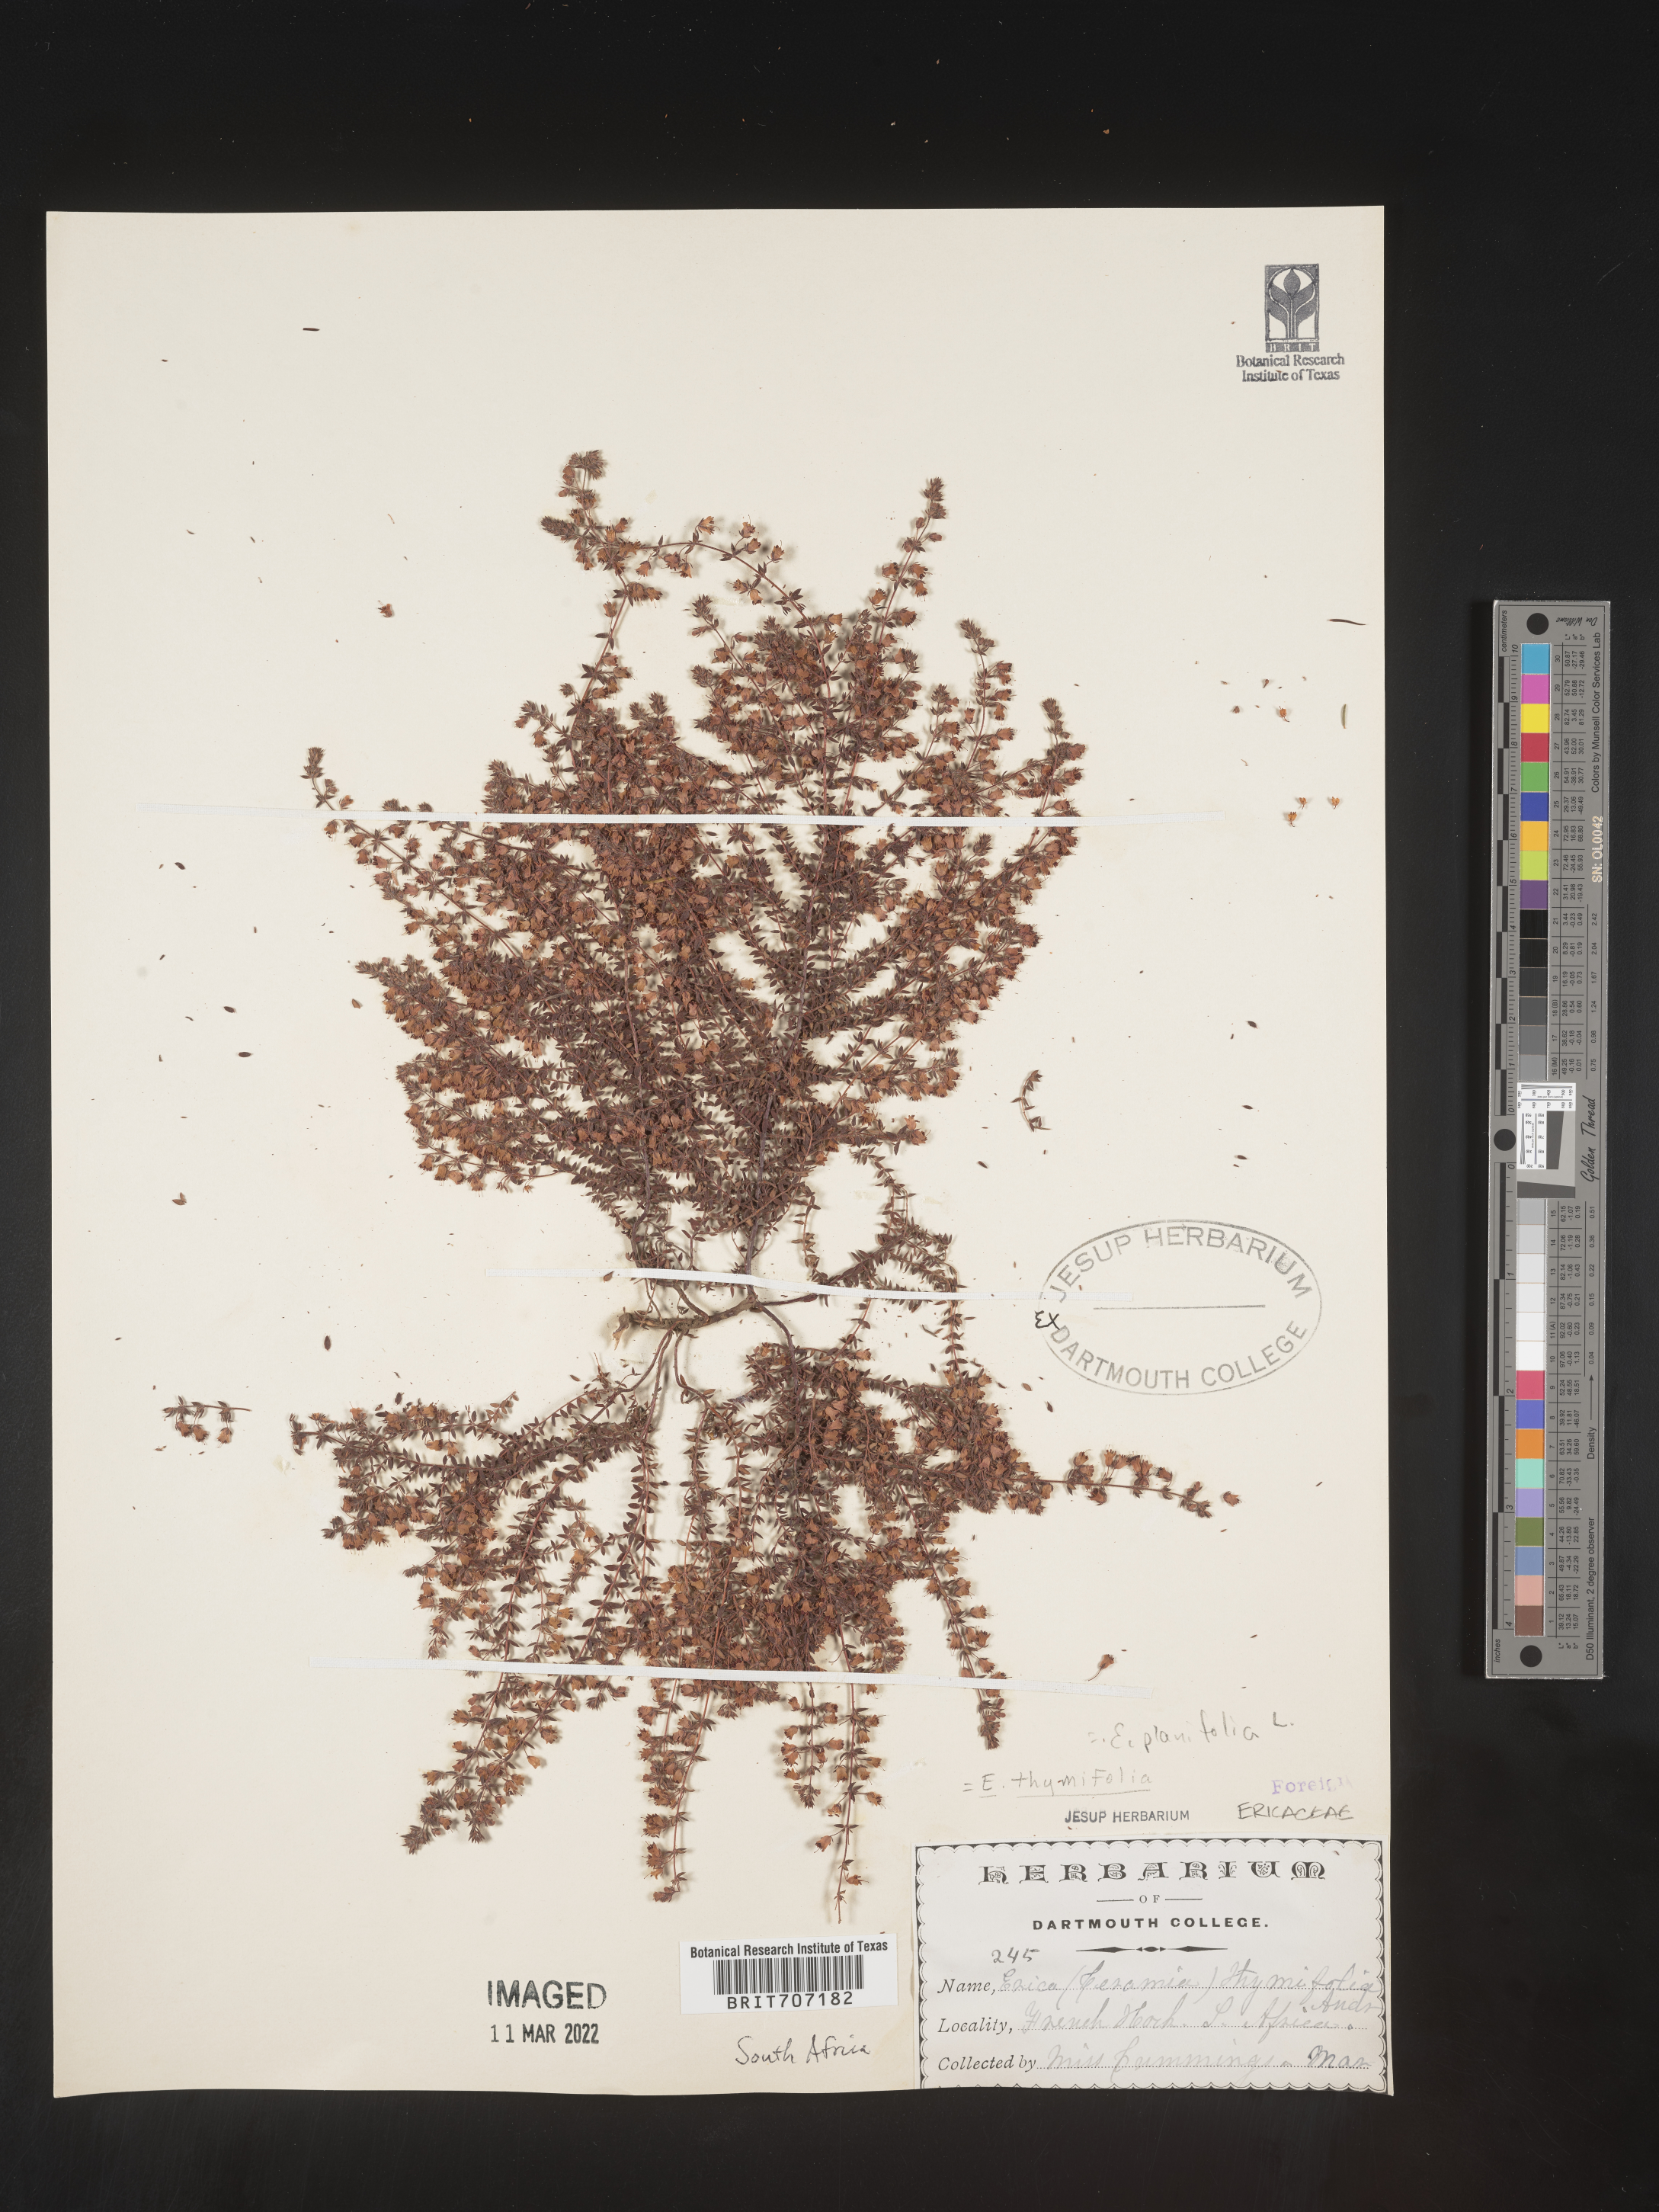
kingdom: Plantae
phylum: Tracheophyta
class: Magnoliopsida
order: Ericales
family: Ericaceae
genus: Erica
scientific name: Erica
